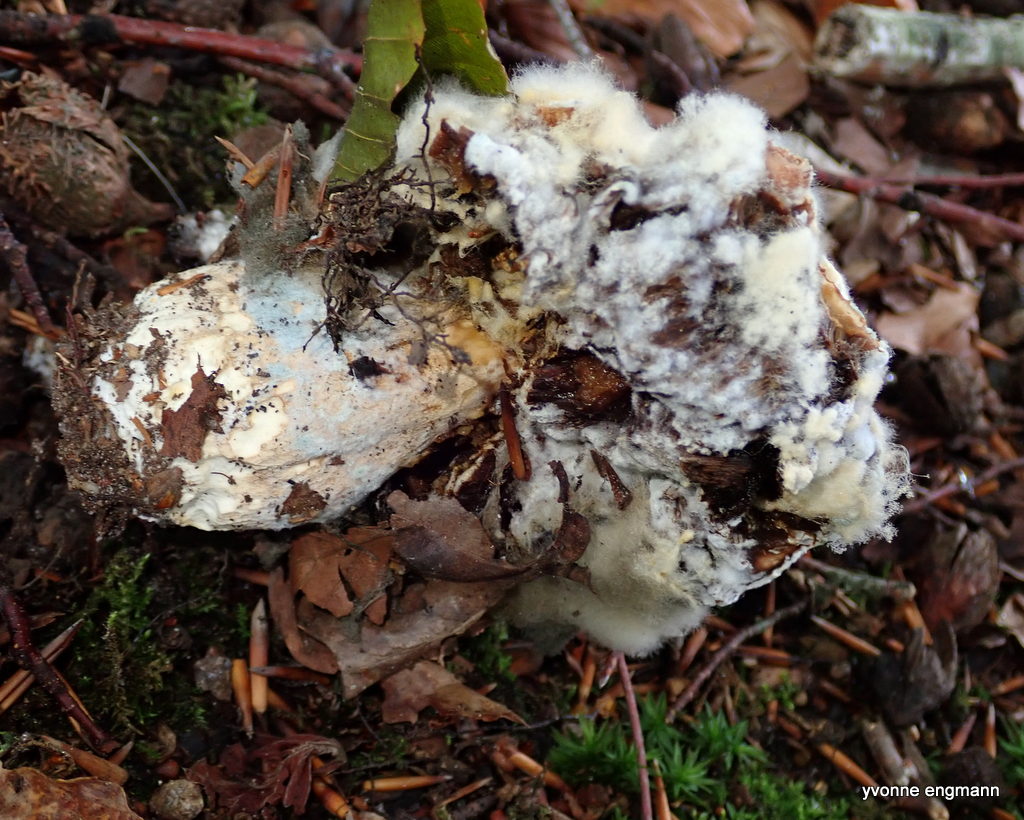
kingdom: Fungi
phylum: Mucoromycota
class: Mucoromycetes
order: Mucorales
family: Rhizopodaceae
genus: Syzygites
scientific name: Syzygites megalocarpus
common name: nissenål
